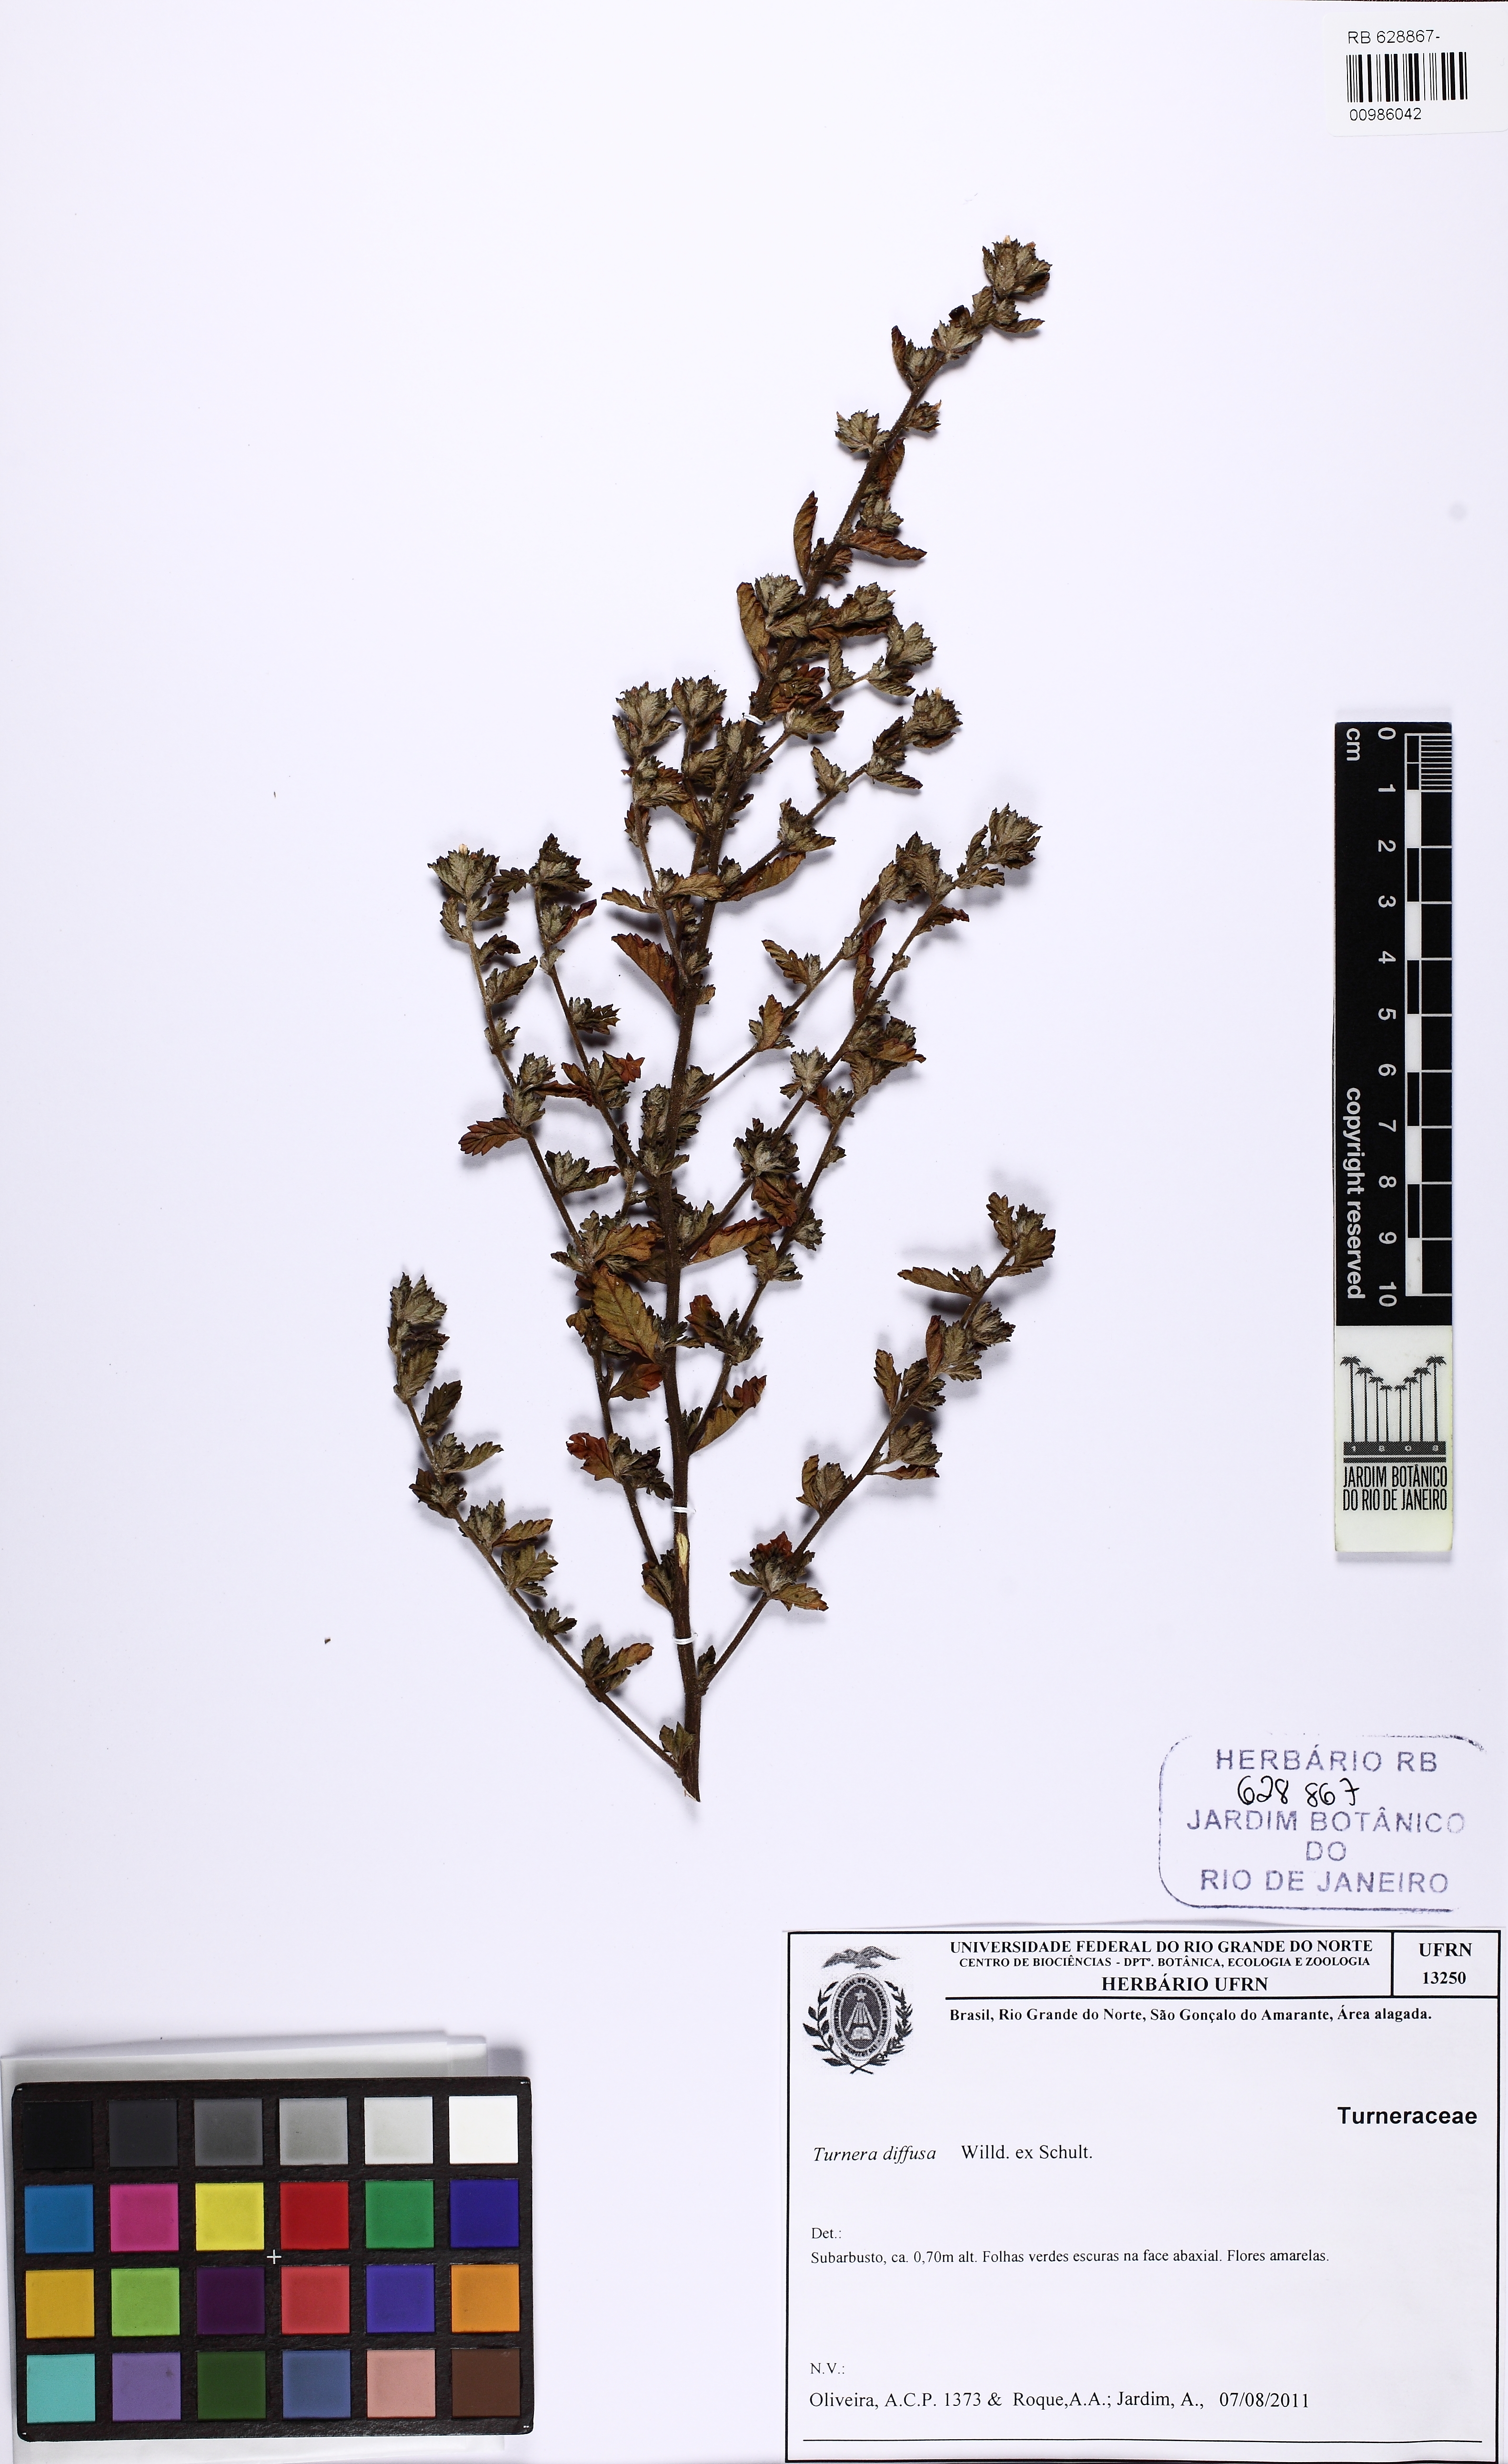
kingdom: Plantae
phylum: Tracheophyta
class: Magnoliopsida
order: Malpighiales
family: Turneraceae
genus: Turnera
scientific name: Turnera diffusa
